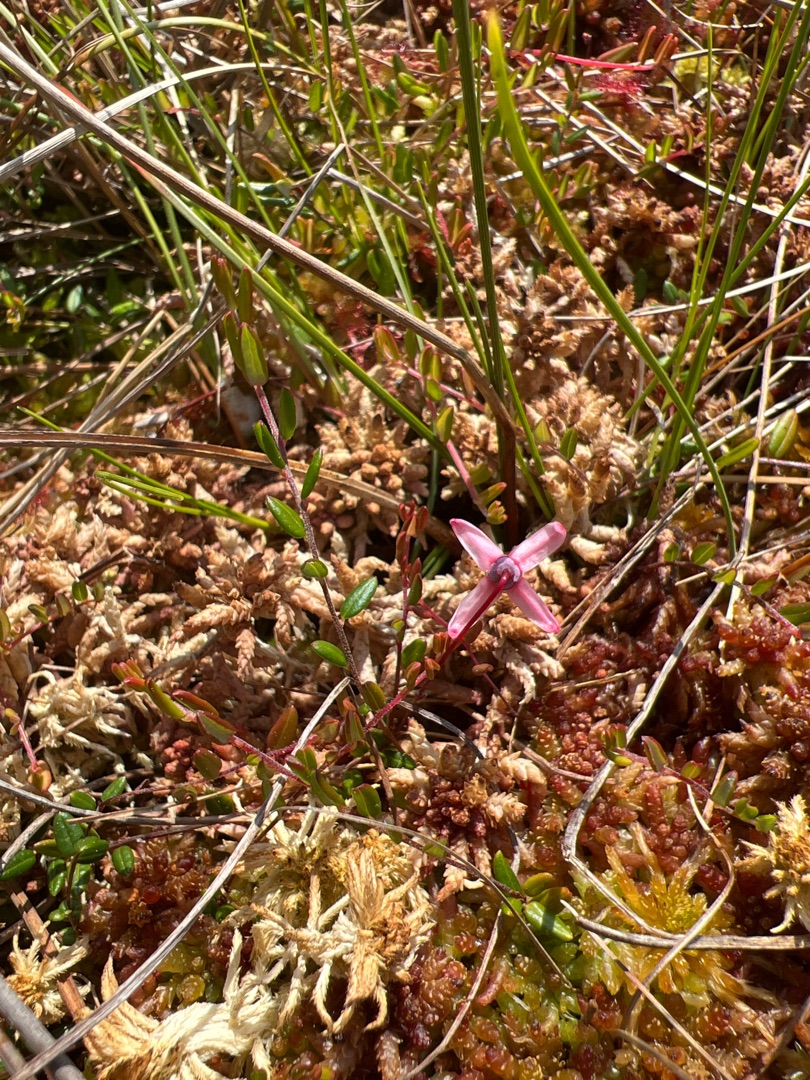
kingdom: Plantae
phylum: Tracheophyta
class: Magnoliopsida
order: Ericales
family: Ericaceae
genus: Vaccinium
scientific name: Vaccinium oxycoccos
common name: Tranebær
